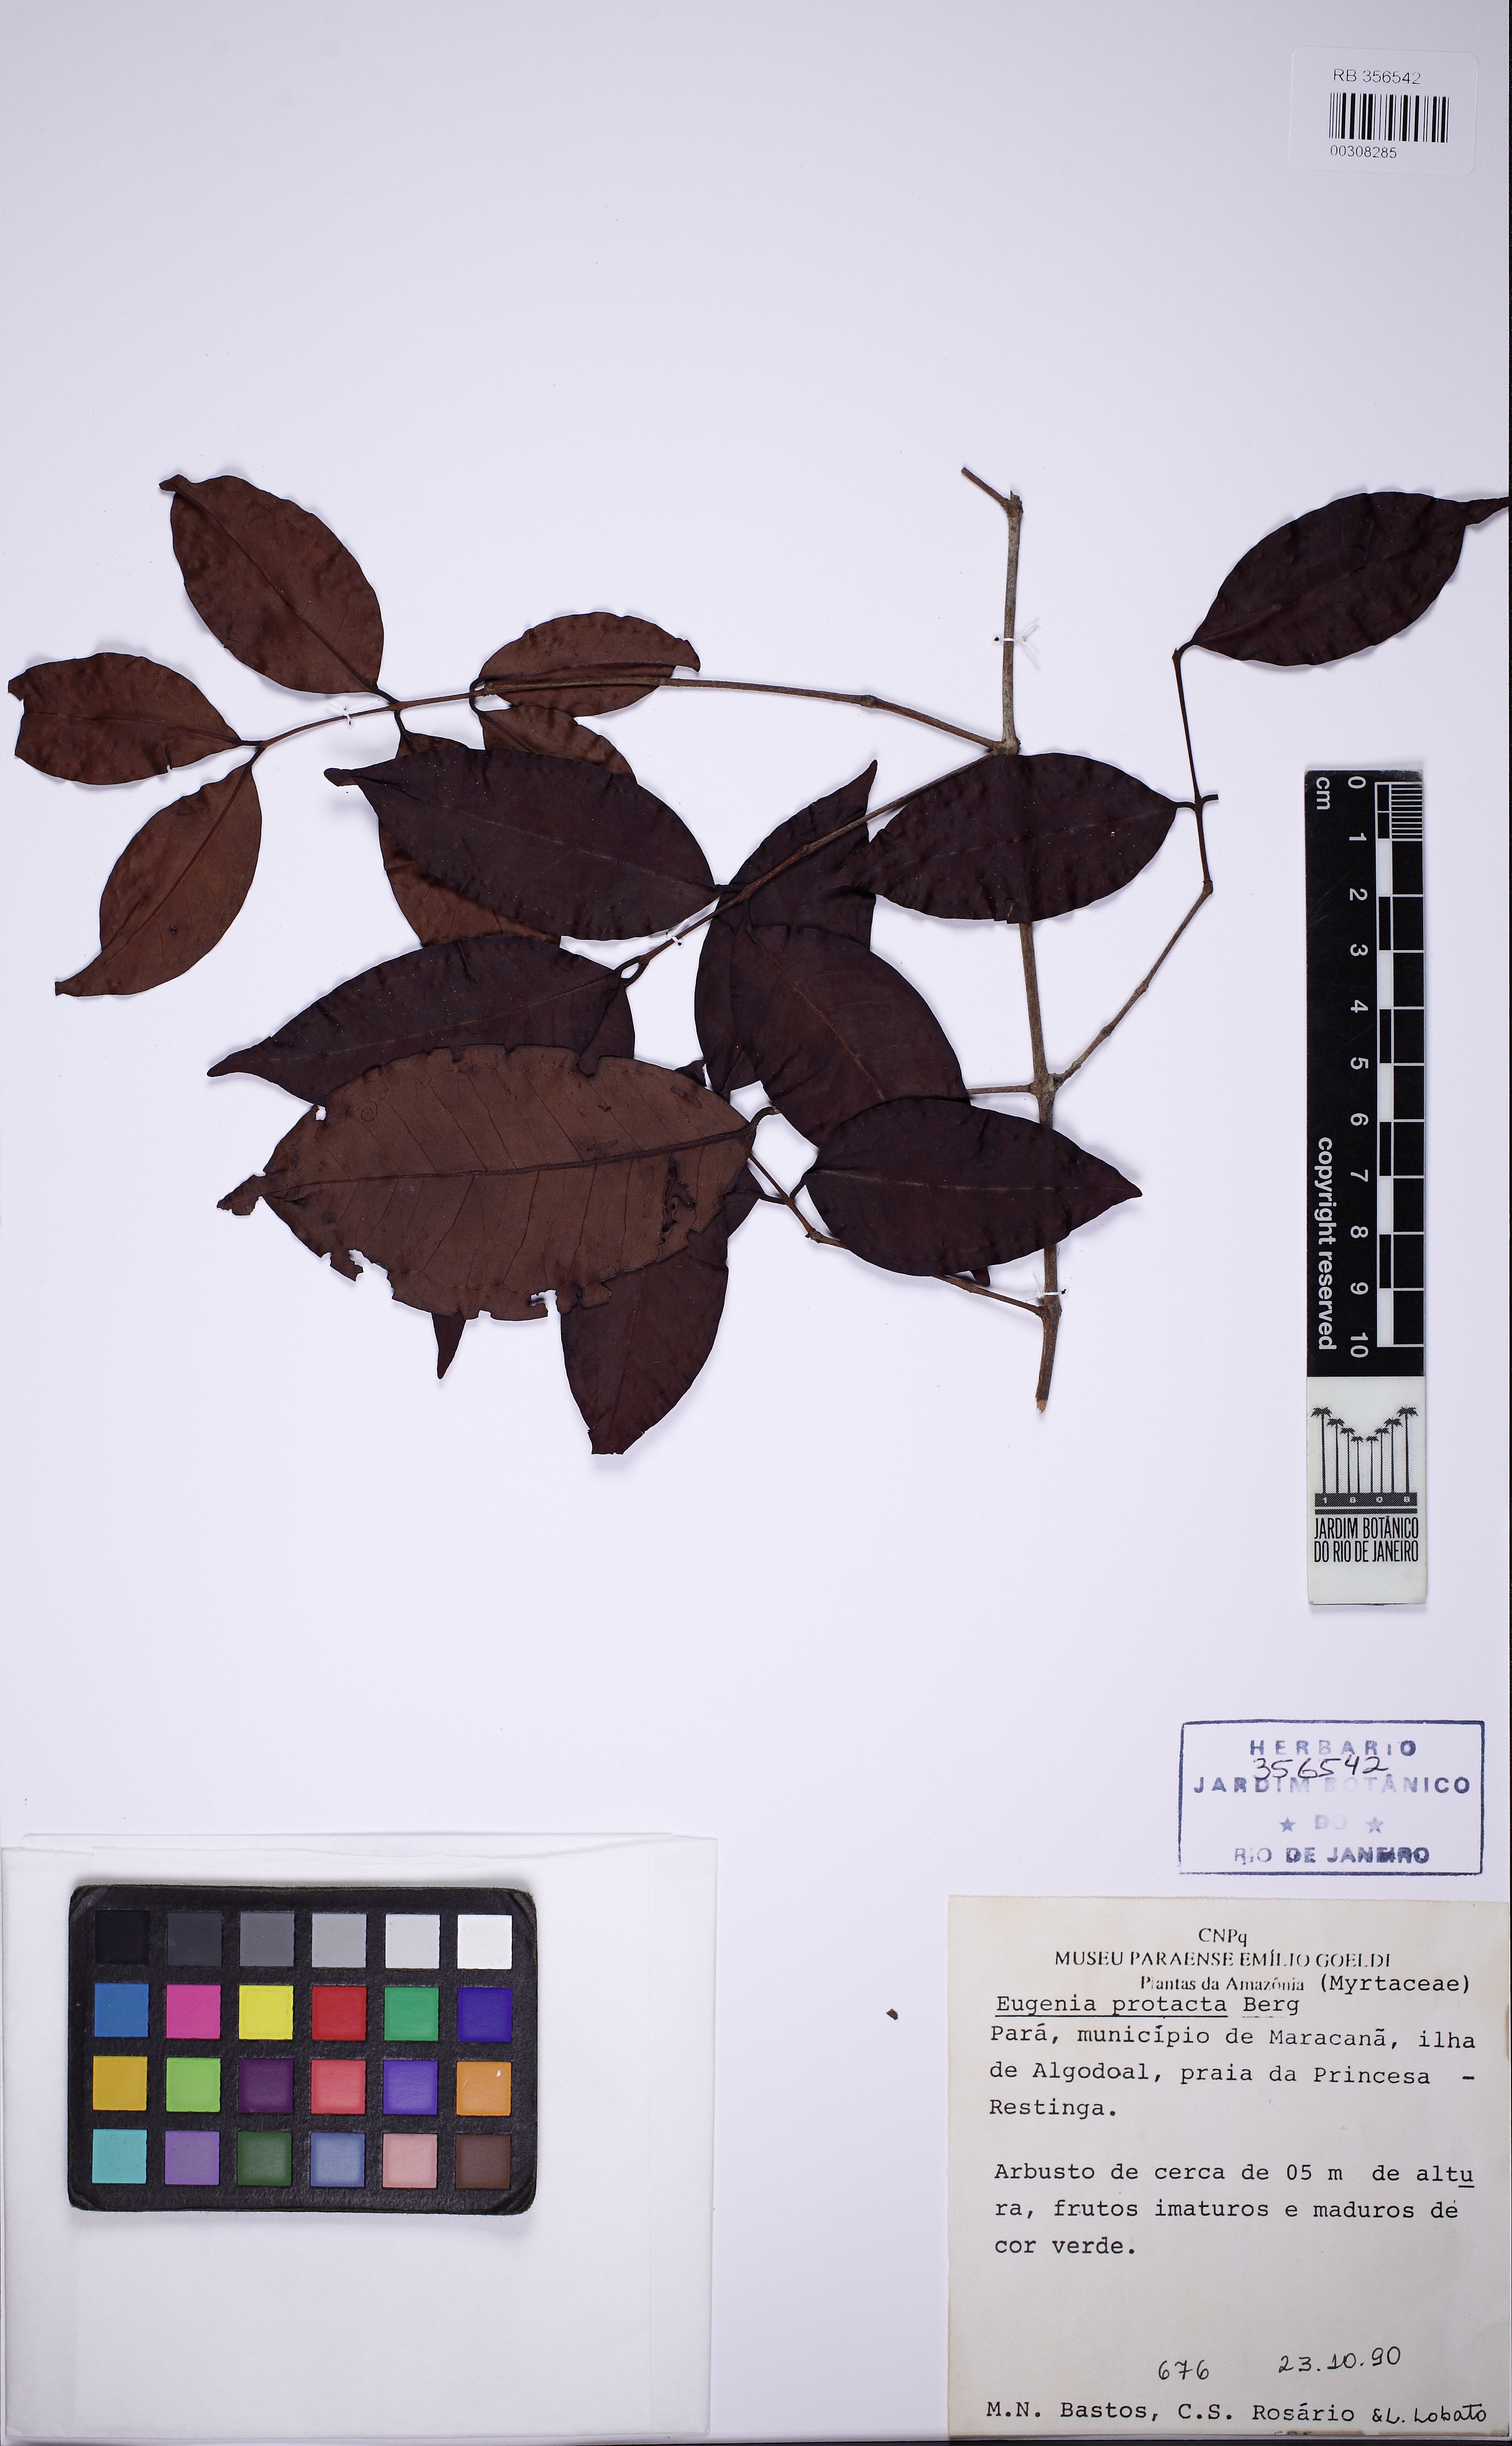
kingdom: Plantae
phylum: Tracheophyta
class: Magnoliopsida
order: Myrtales
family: Myrtaceae
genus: Eugenia
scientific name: Eugenia protenta
